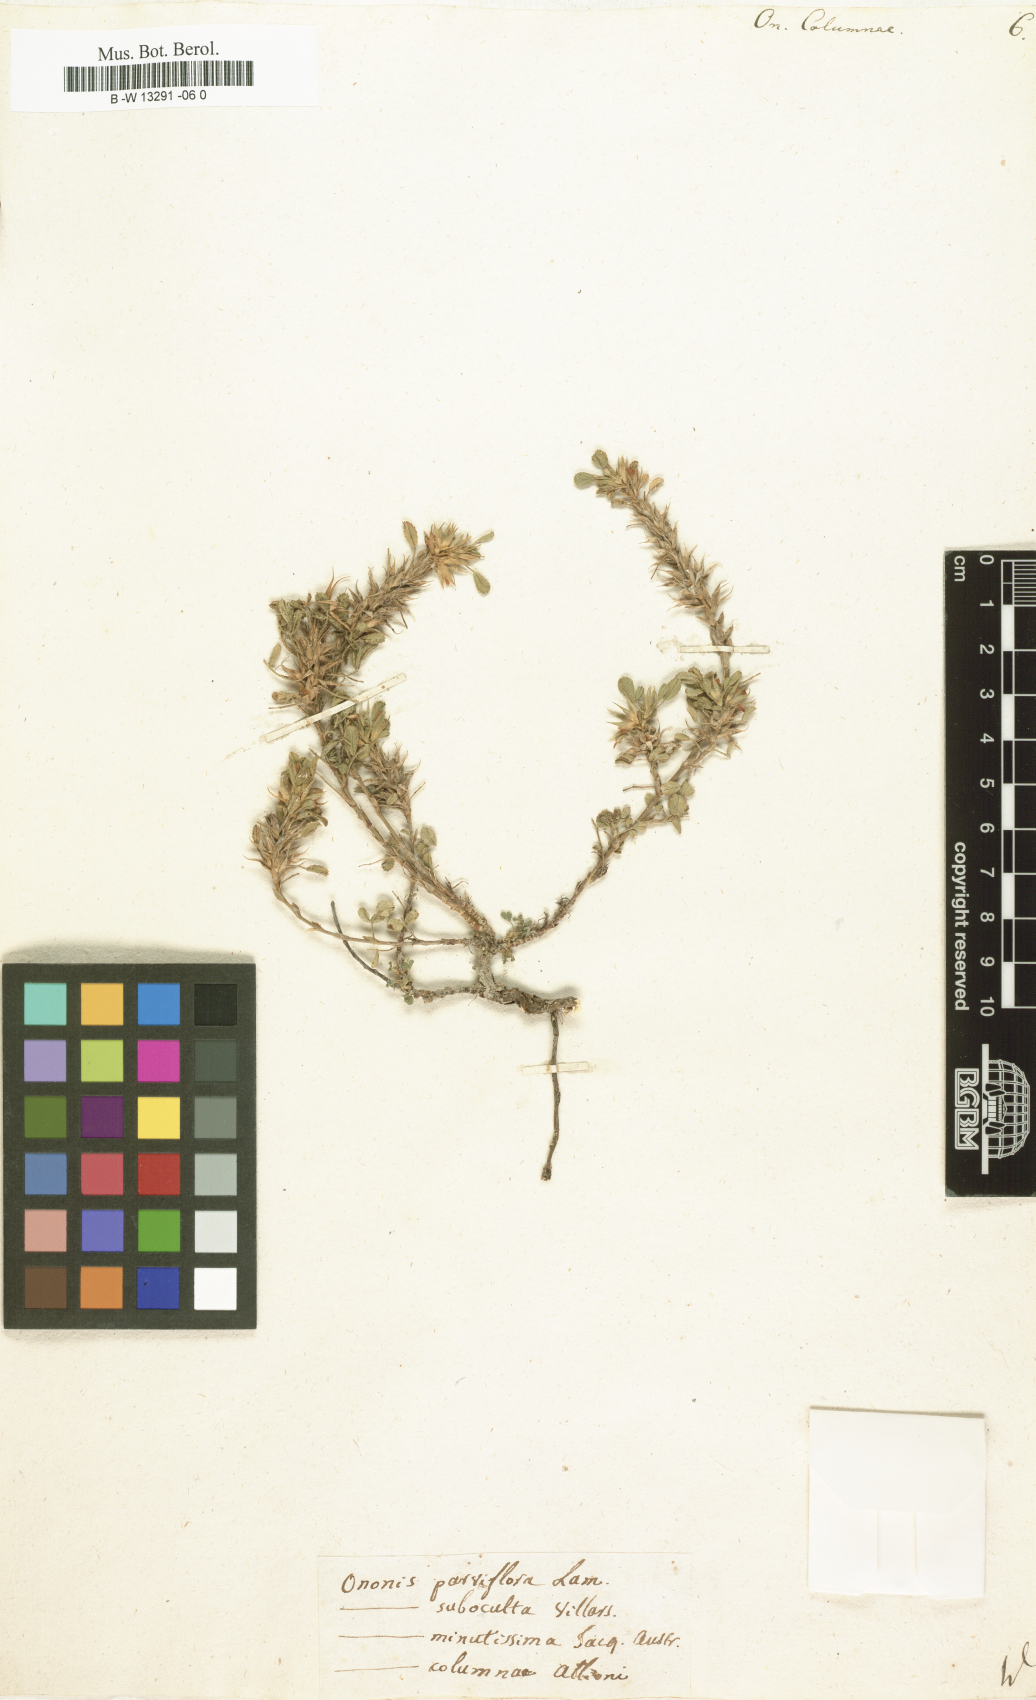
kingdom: Plantae
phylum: Tracheophyta
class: Magnoliopsida
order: Fabales
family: Fabaceae
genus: Ononis
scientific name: Ononis pusilla
